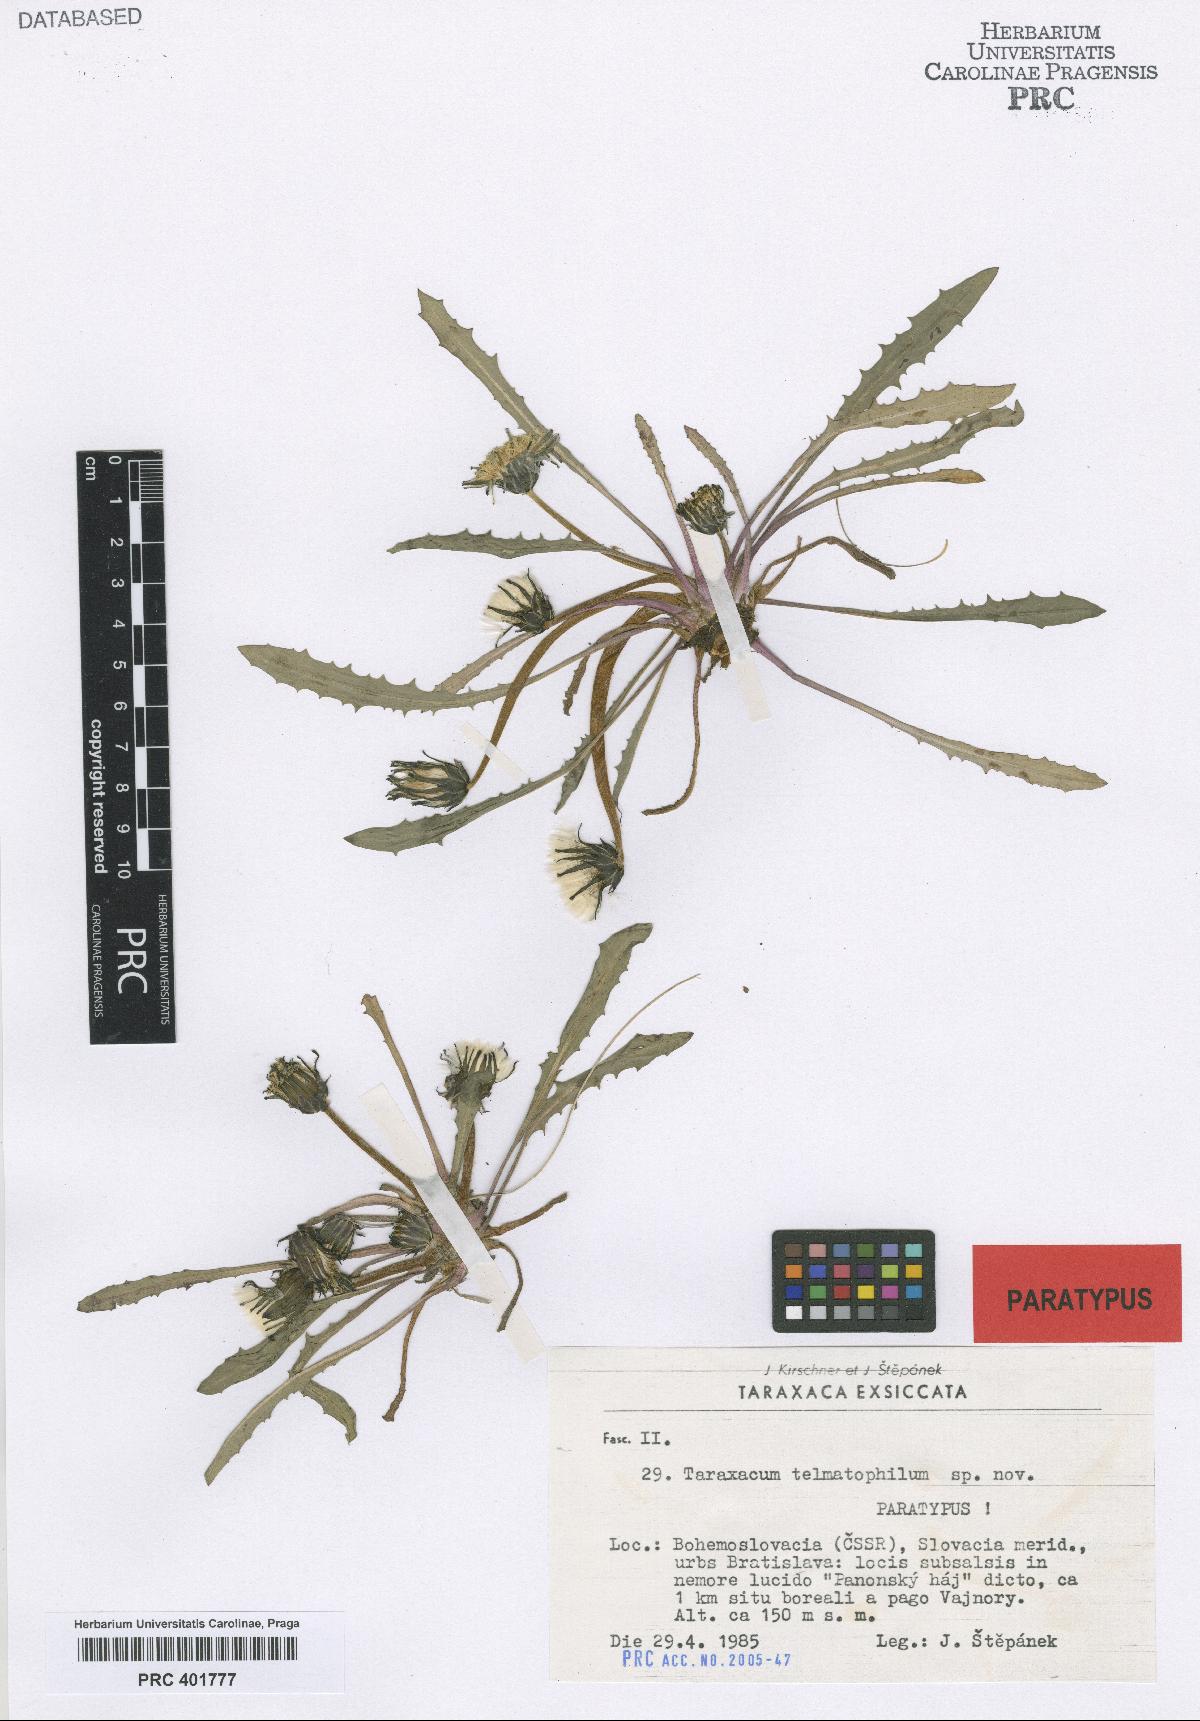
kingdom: Plantae
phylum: Tracheophyta
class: Magnoliopsida
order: Asterales
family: Asteraceae
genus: Taraxacum
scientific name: Taraxacum telmatophilum
